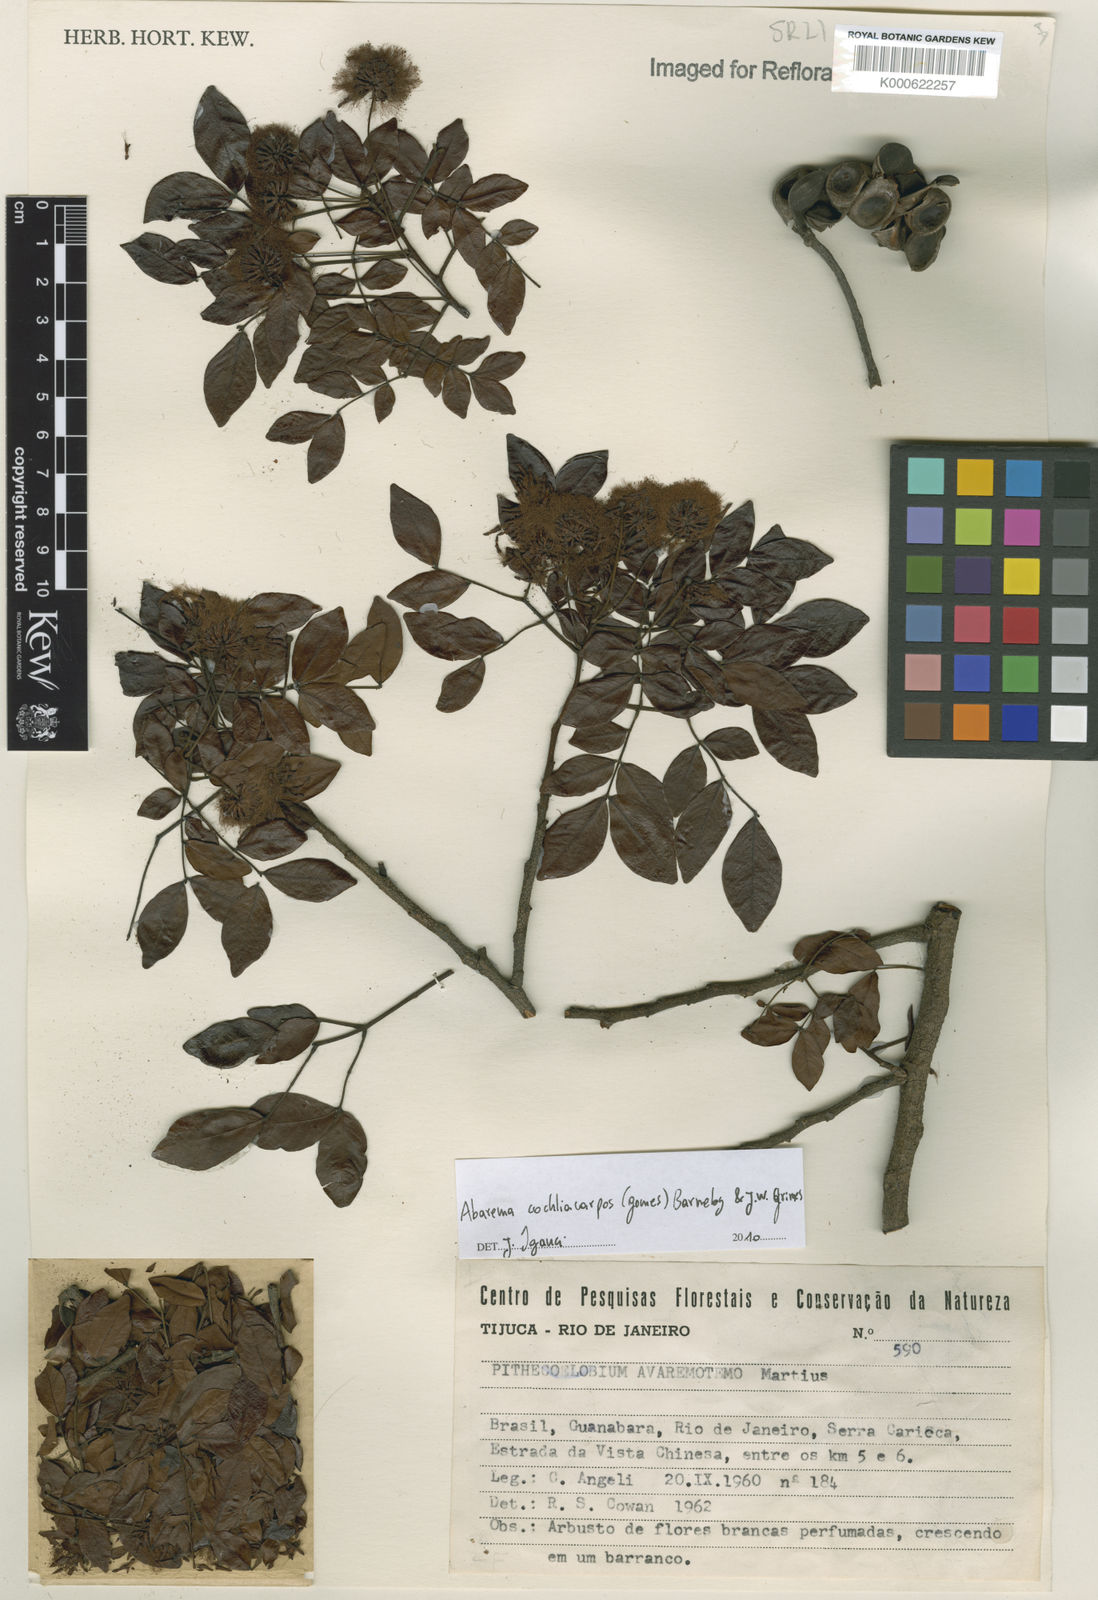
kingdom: Plantae
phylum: Tracheophyta
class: Magnoliopsida
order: Fabales
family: Fabaceae
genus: Abarema
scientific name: Abarema
